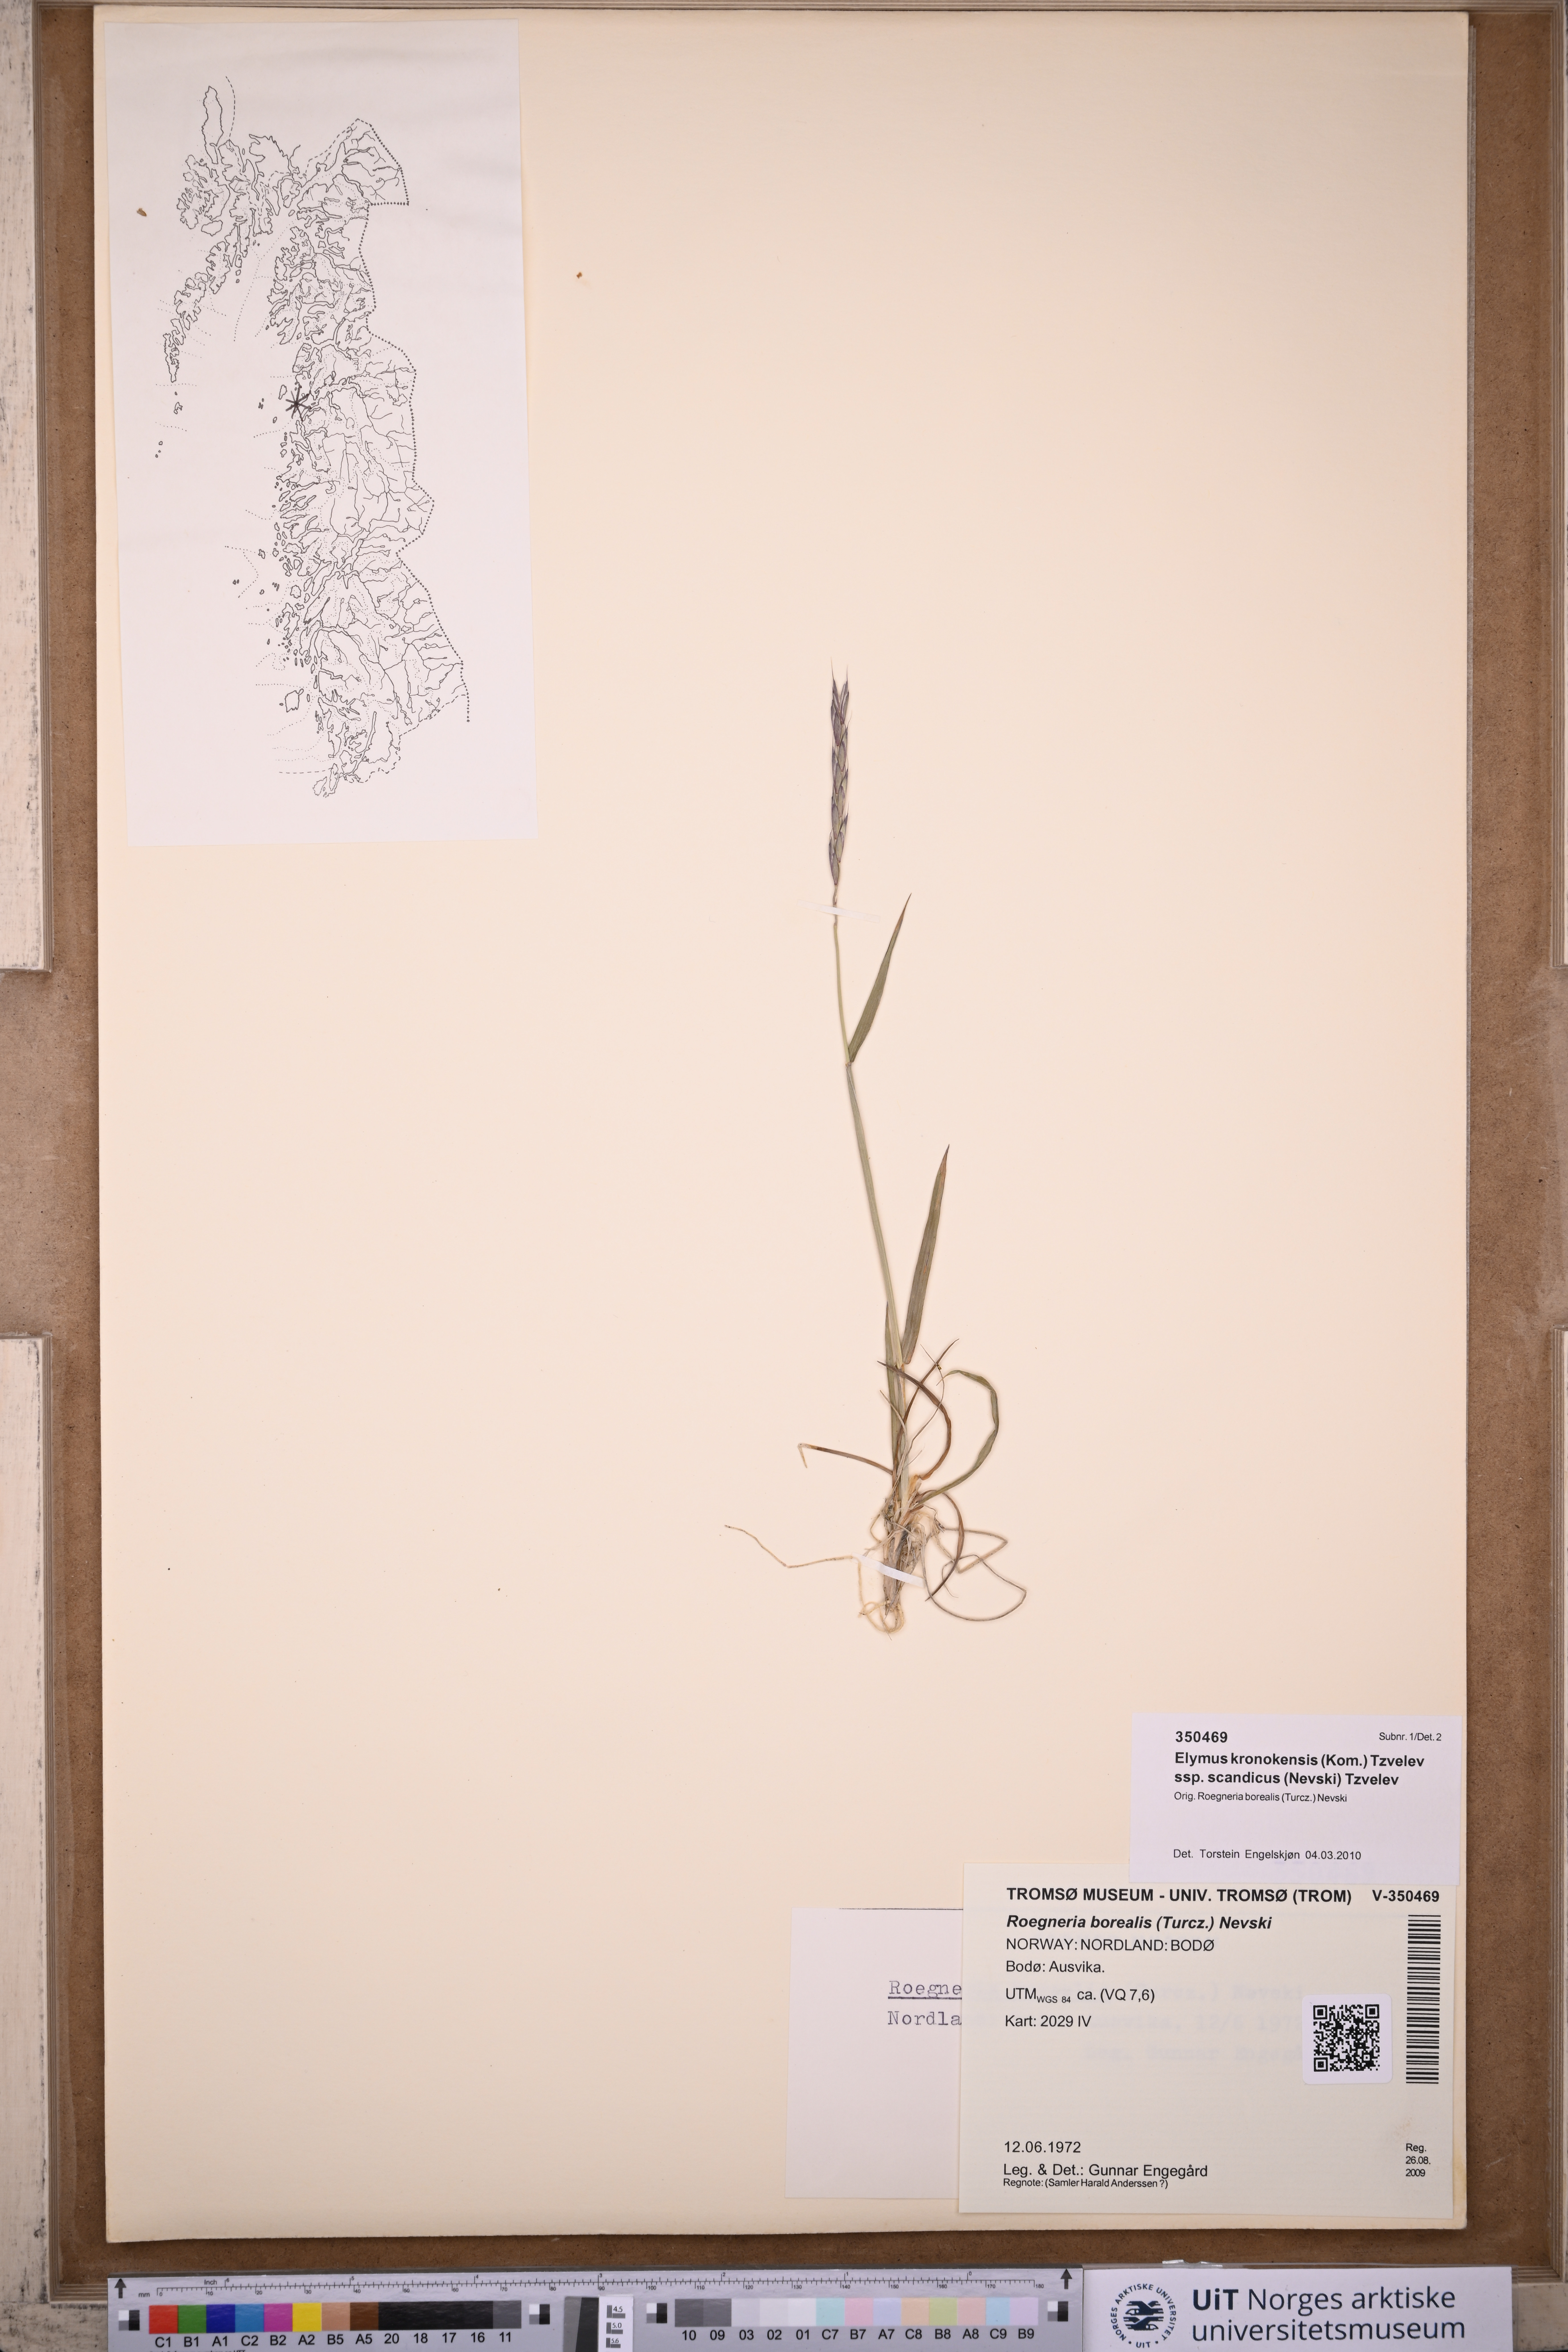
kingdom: Plantae
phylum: Tracheophyta
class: Liliopsida
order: Poales
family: Poaceae
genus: Elymus
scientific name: Elymus macrourus
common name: Northern wheatgrass
